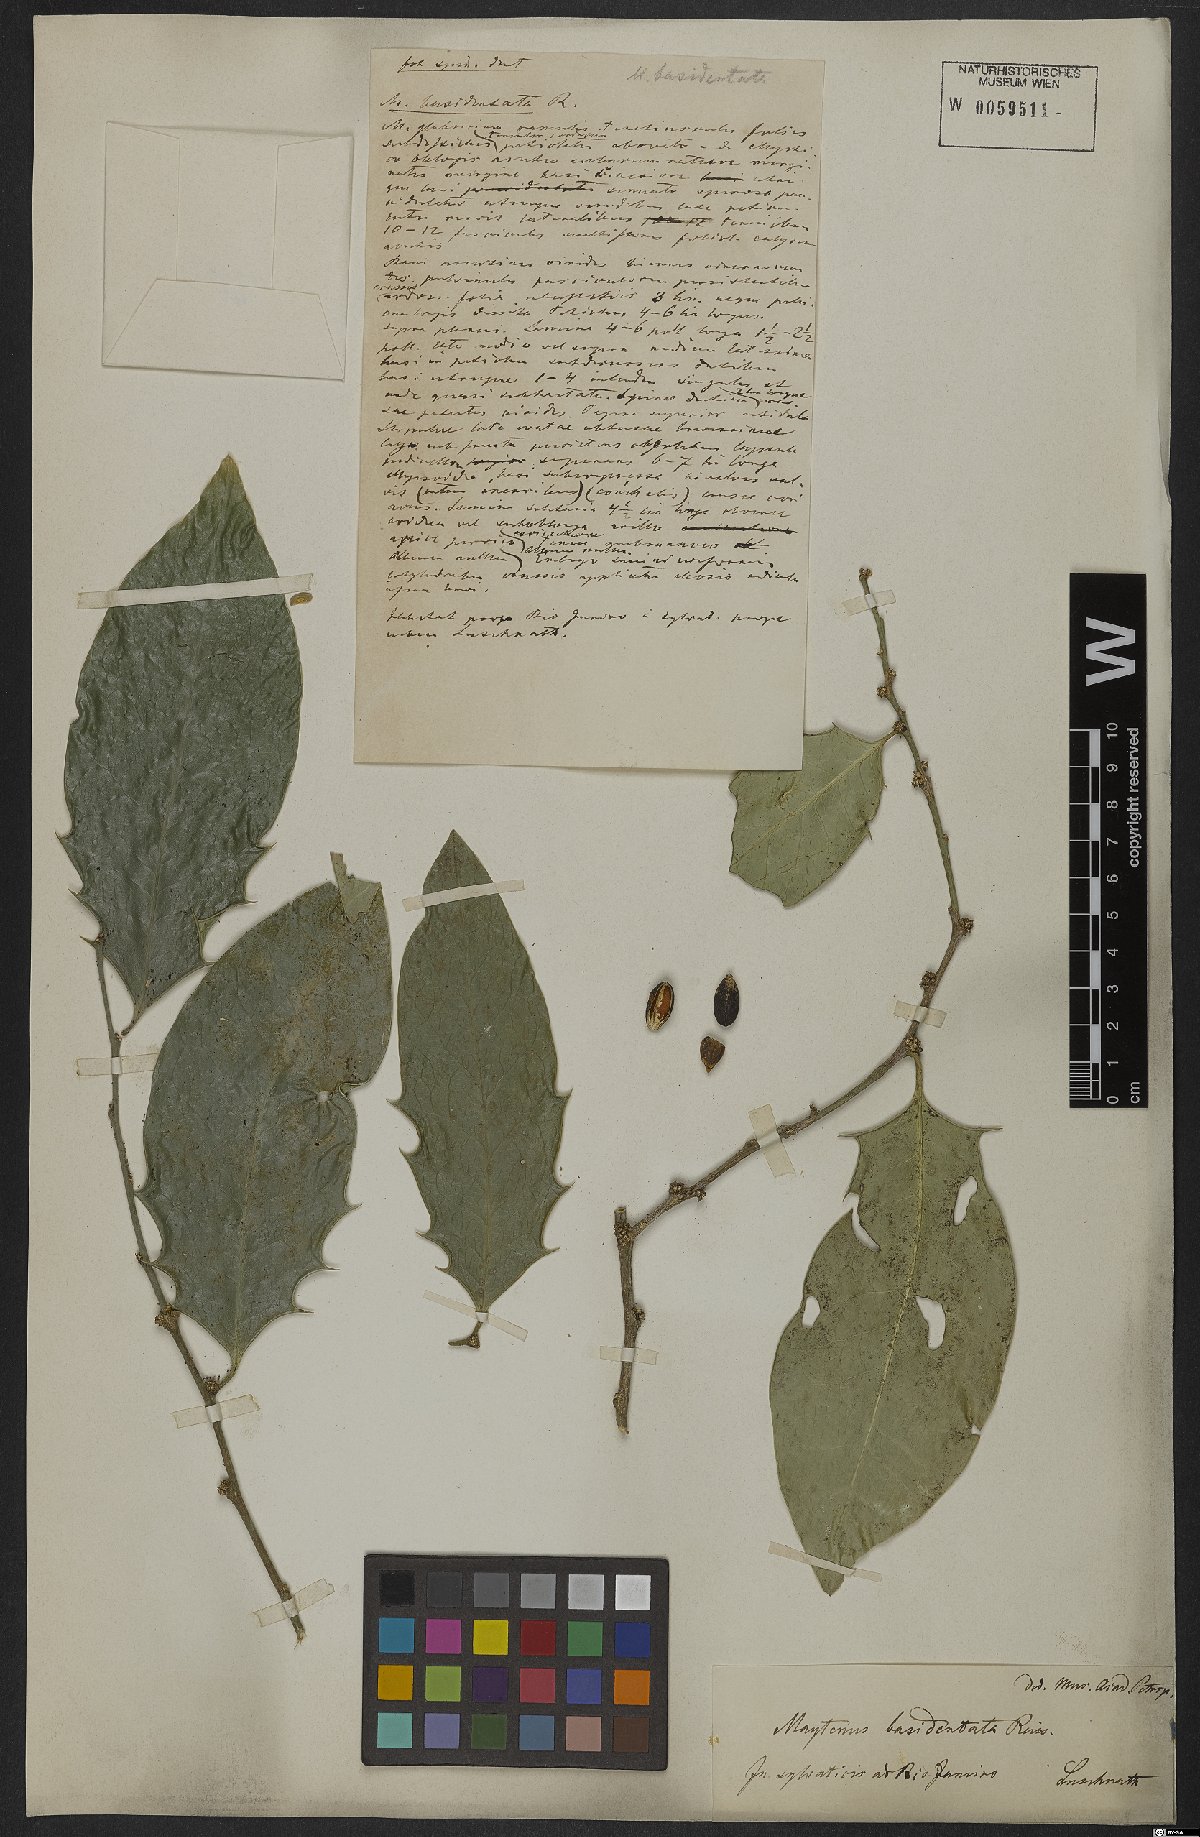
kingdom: Plantae
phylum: Tracheophyta
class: Magnoliopsida
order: Celastrales
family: Celastraceae
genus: Monteverdia
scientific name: Monteverdia basidentata
